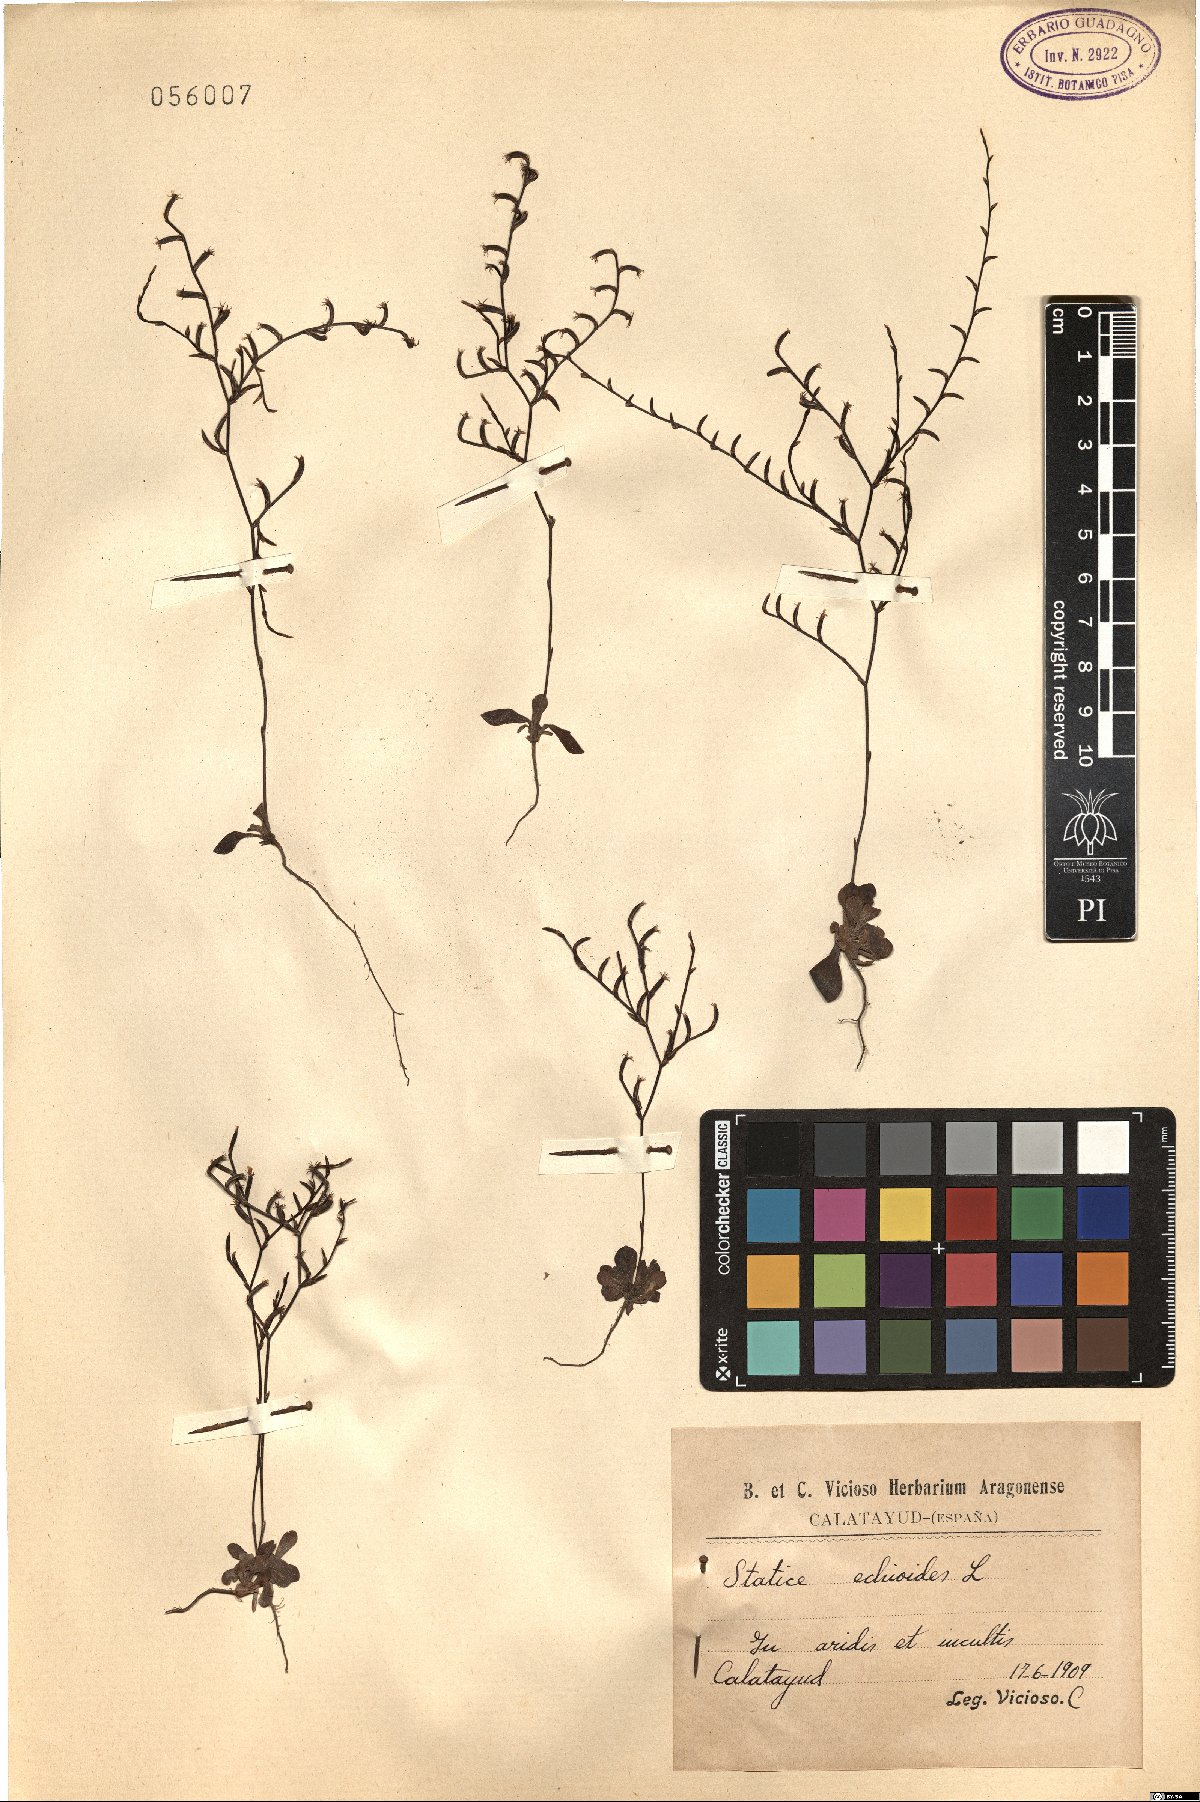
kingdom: Plantae
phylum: Tracheophyta
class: Magnoliopsida
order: Caryophyllales
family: Plumbaginaceae
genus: Limonium
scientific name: Limonium echioides
